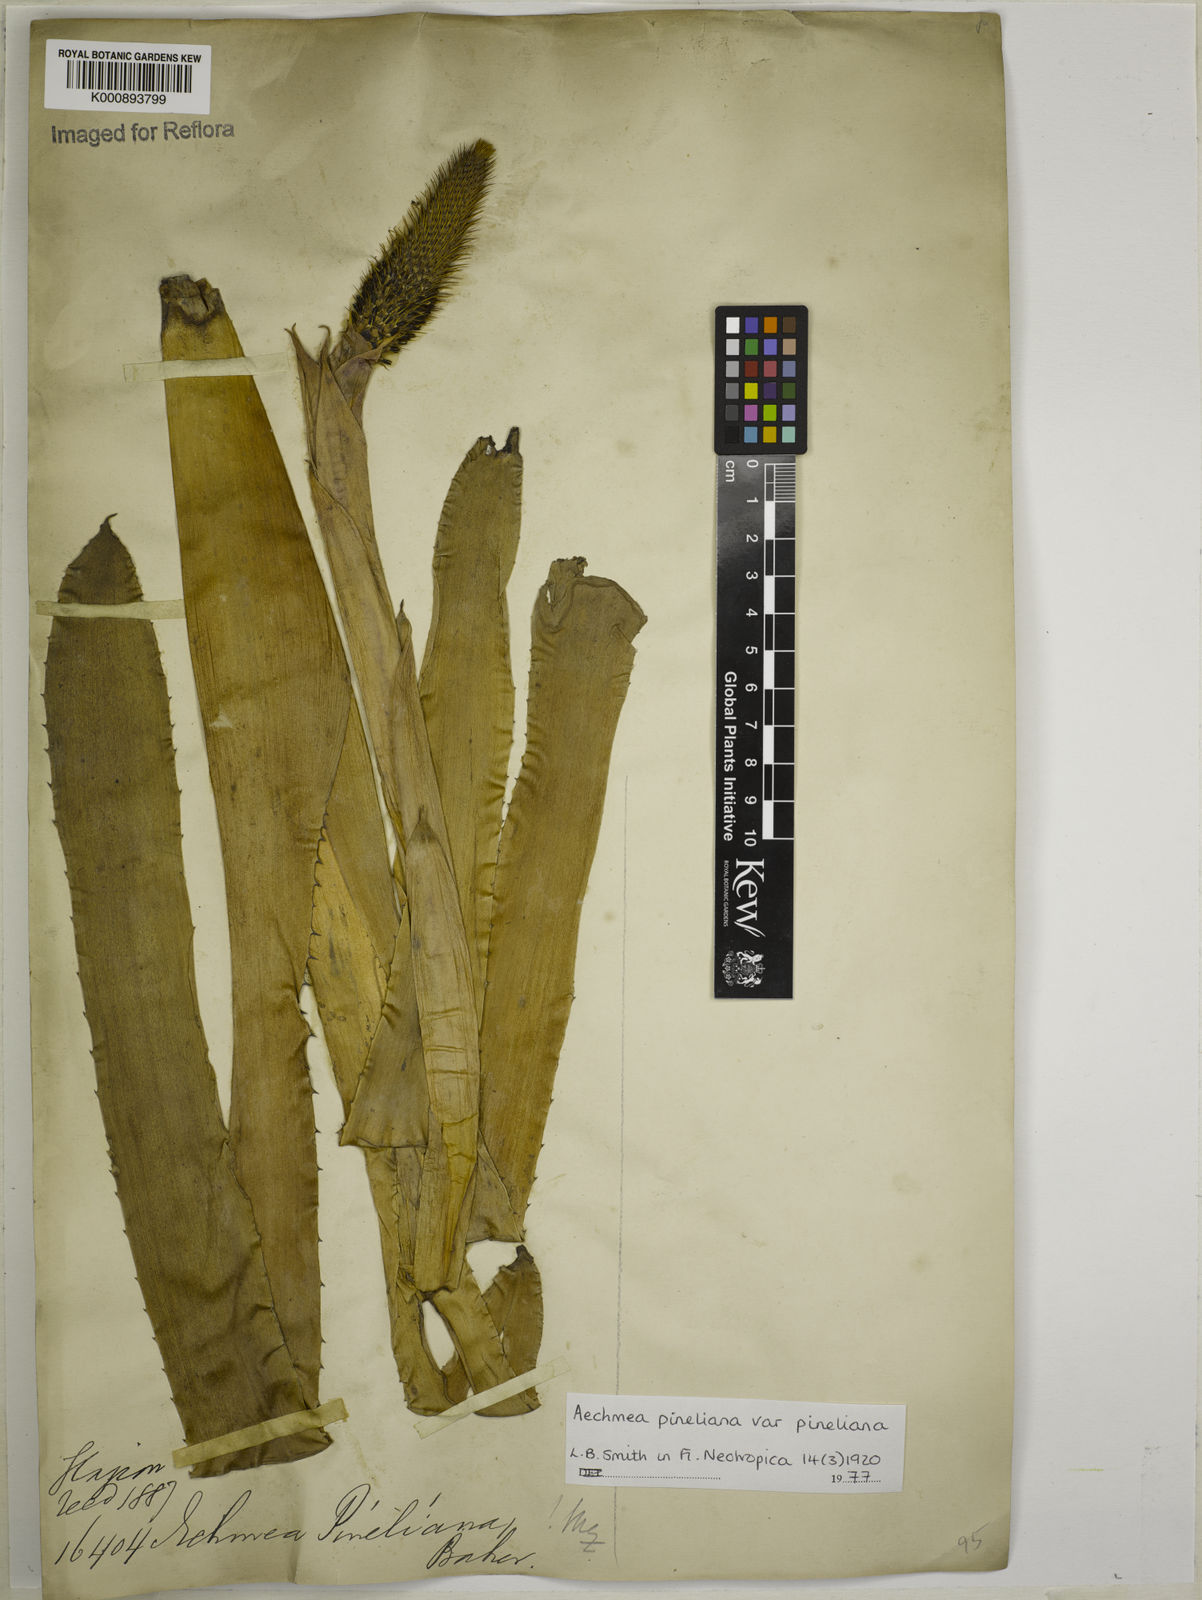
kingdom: Plantae
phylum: Tracheophyta
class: Liliopsida
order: Poales
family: Bromeliaceae
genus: Aechmea
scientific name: Aechmea pineliana
